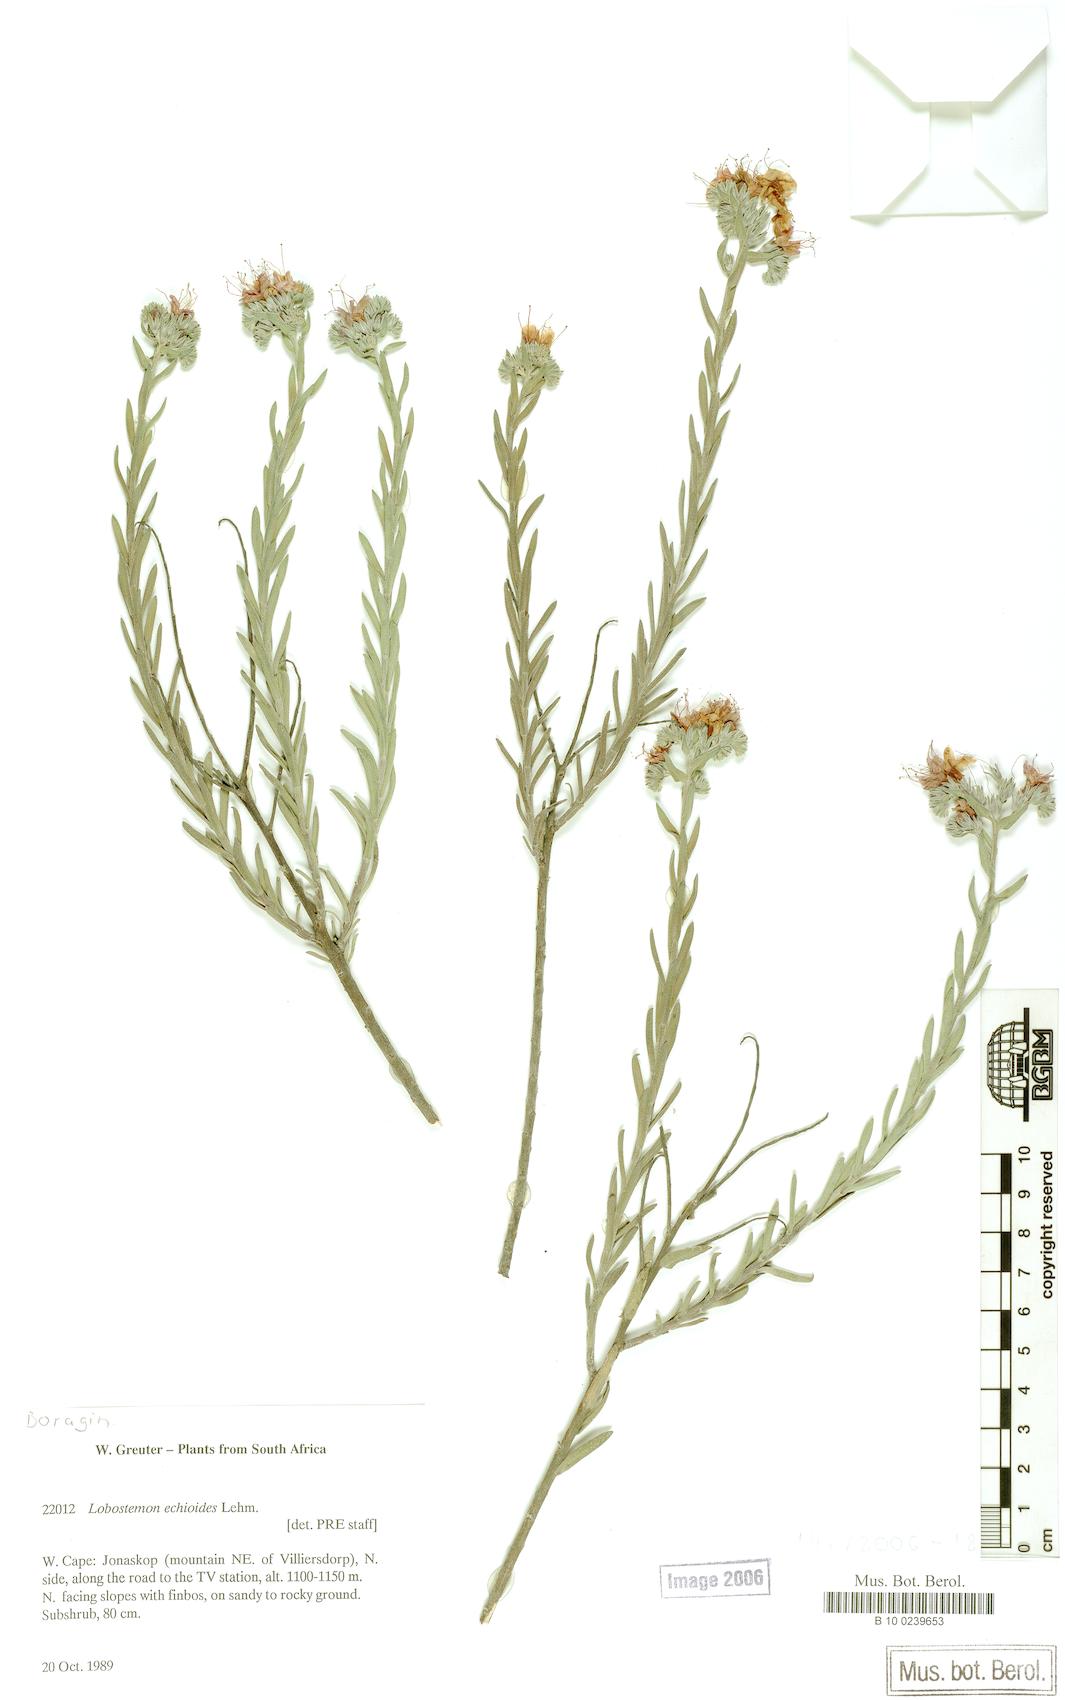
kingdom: Plantae
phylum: Tracheophyta
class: Magnoliopsida
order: Boraginales
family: Boraginaceae
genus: Lobostemon
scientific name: Lobostemon echioides
